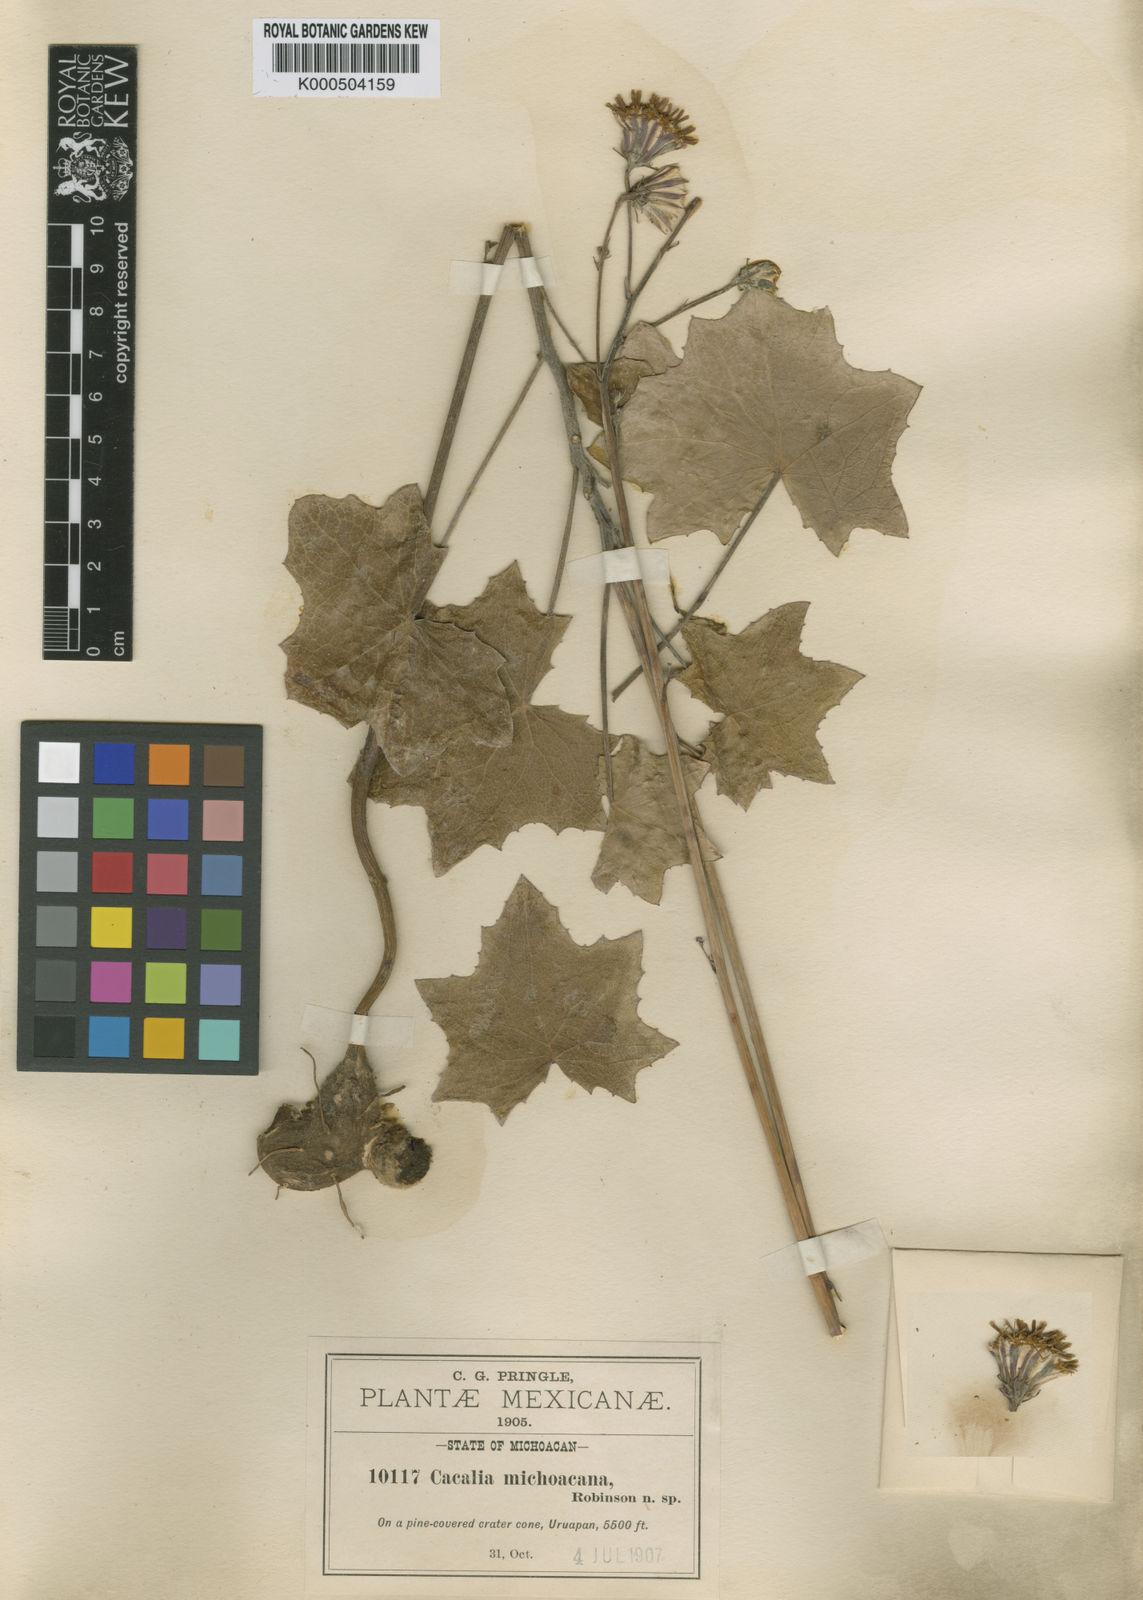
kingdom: Plantae
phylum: Tracheophyta
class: Magnoliopsida
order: Asterales
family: Asteraceae
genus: Roldana
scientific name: Roldana michoacana
